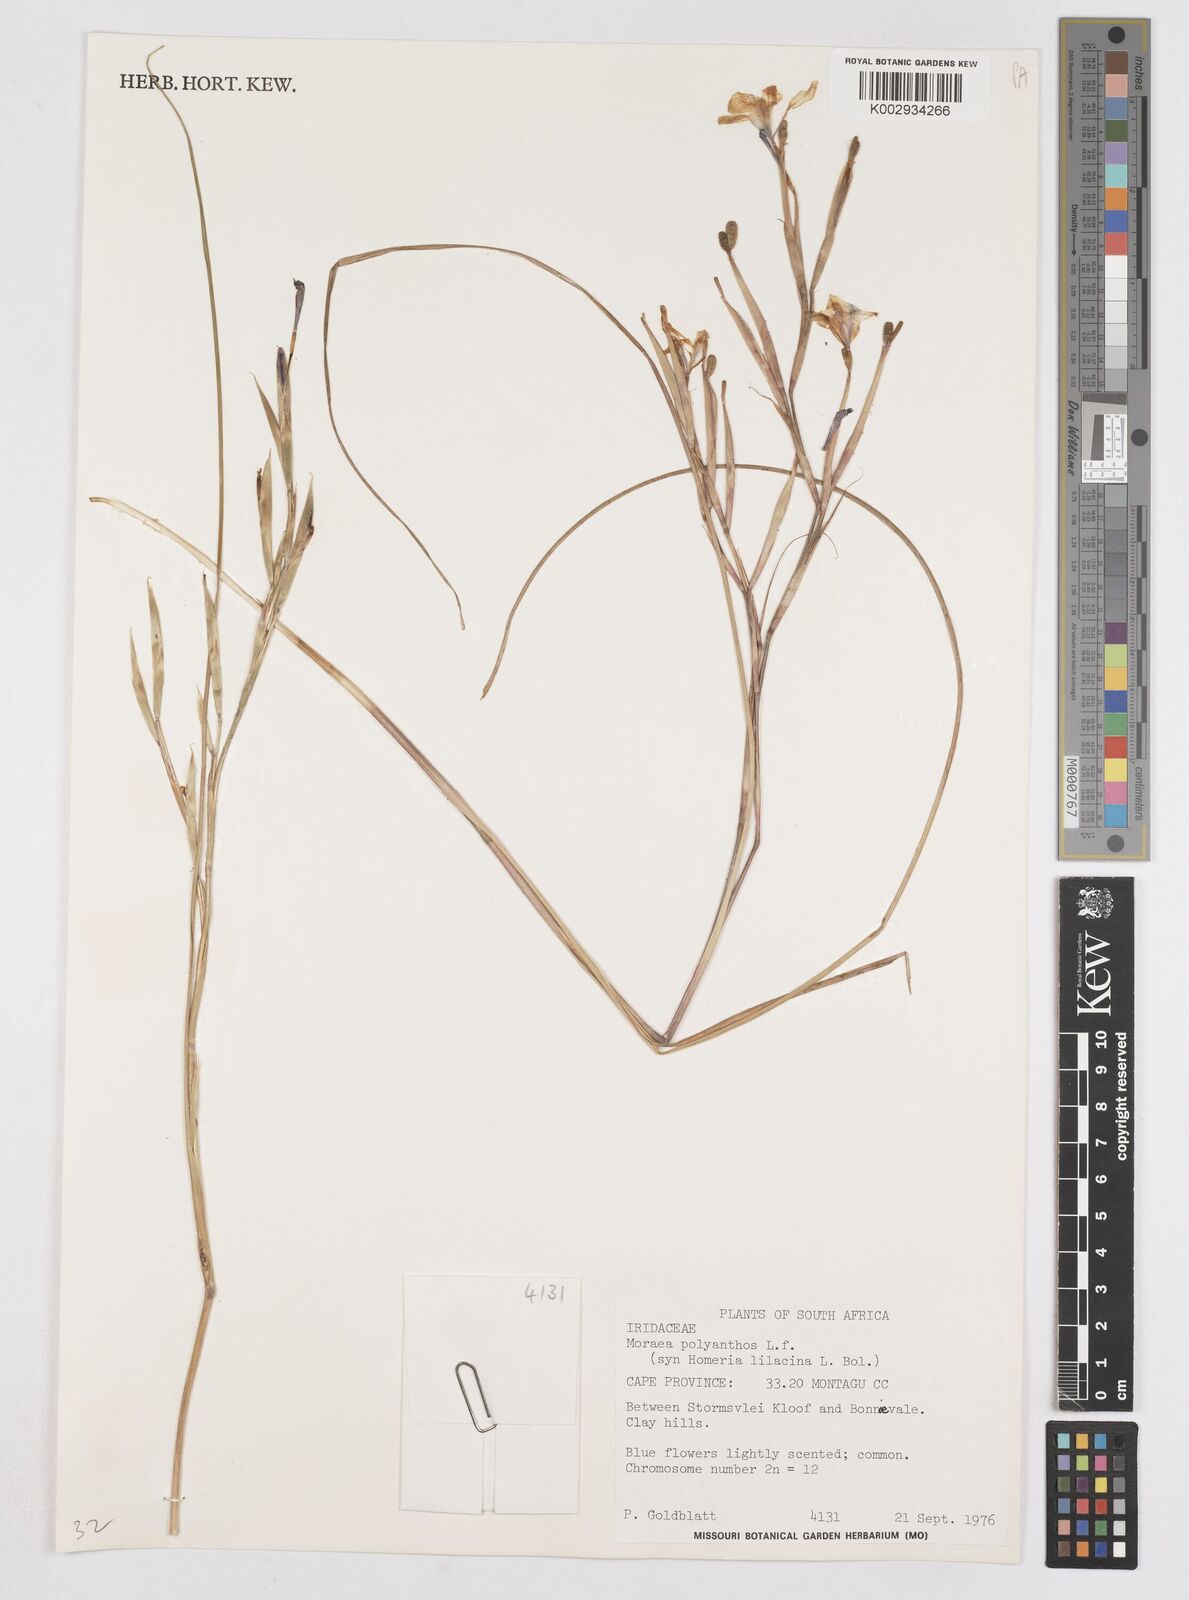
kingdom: Plantae
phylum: Tracheophyta
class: Liliopsida
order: Asparagales
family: Iridaceae
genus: Moraea
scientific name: Moraea bipartita
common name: Blue tulp
